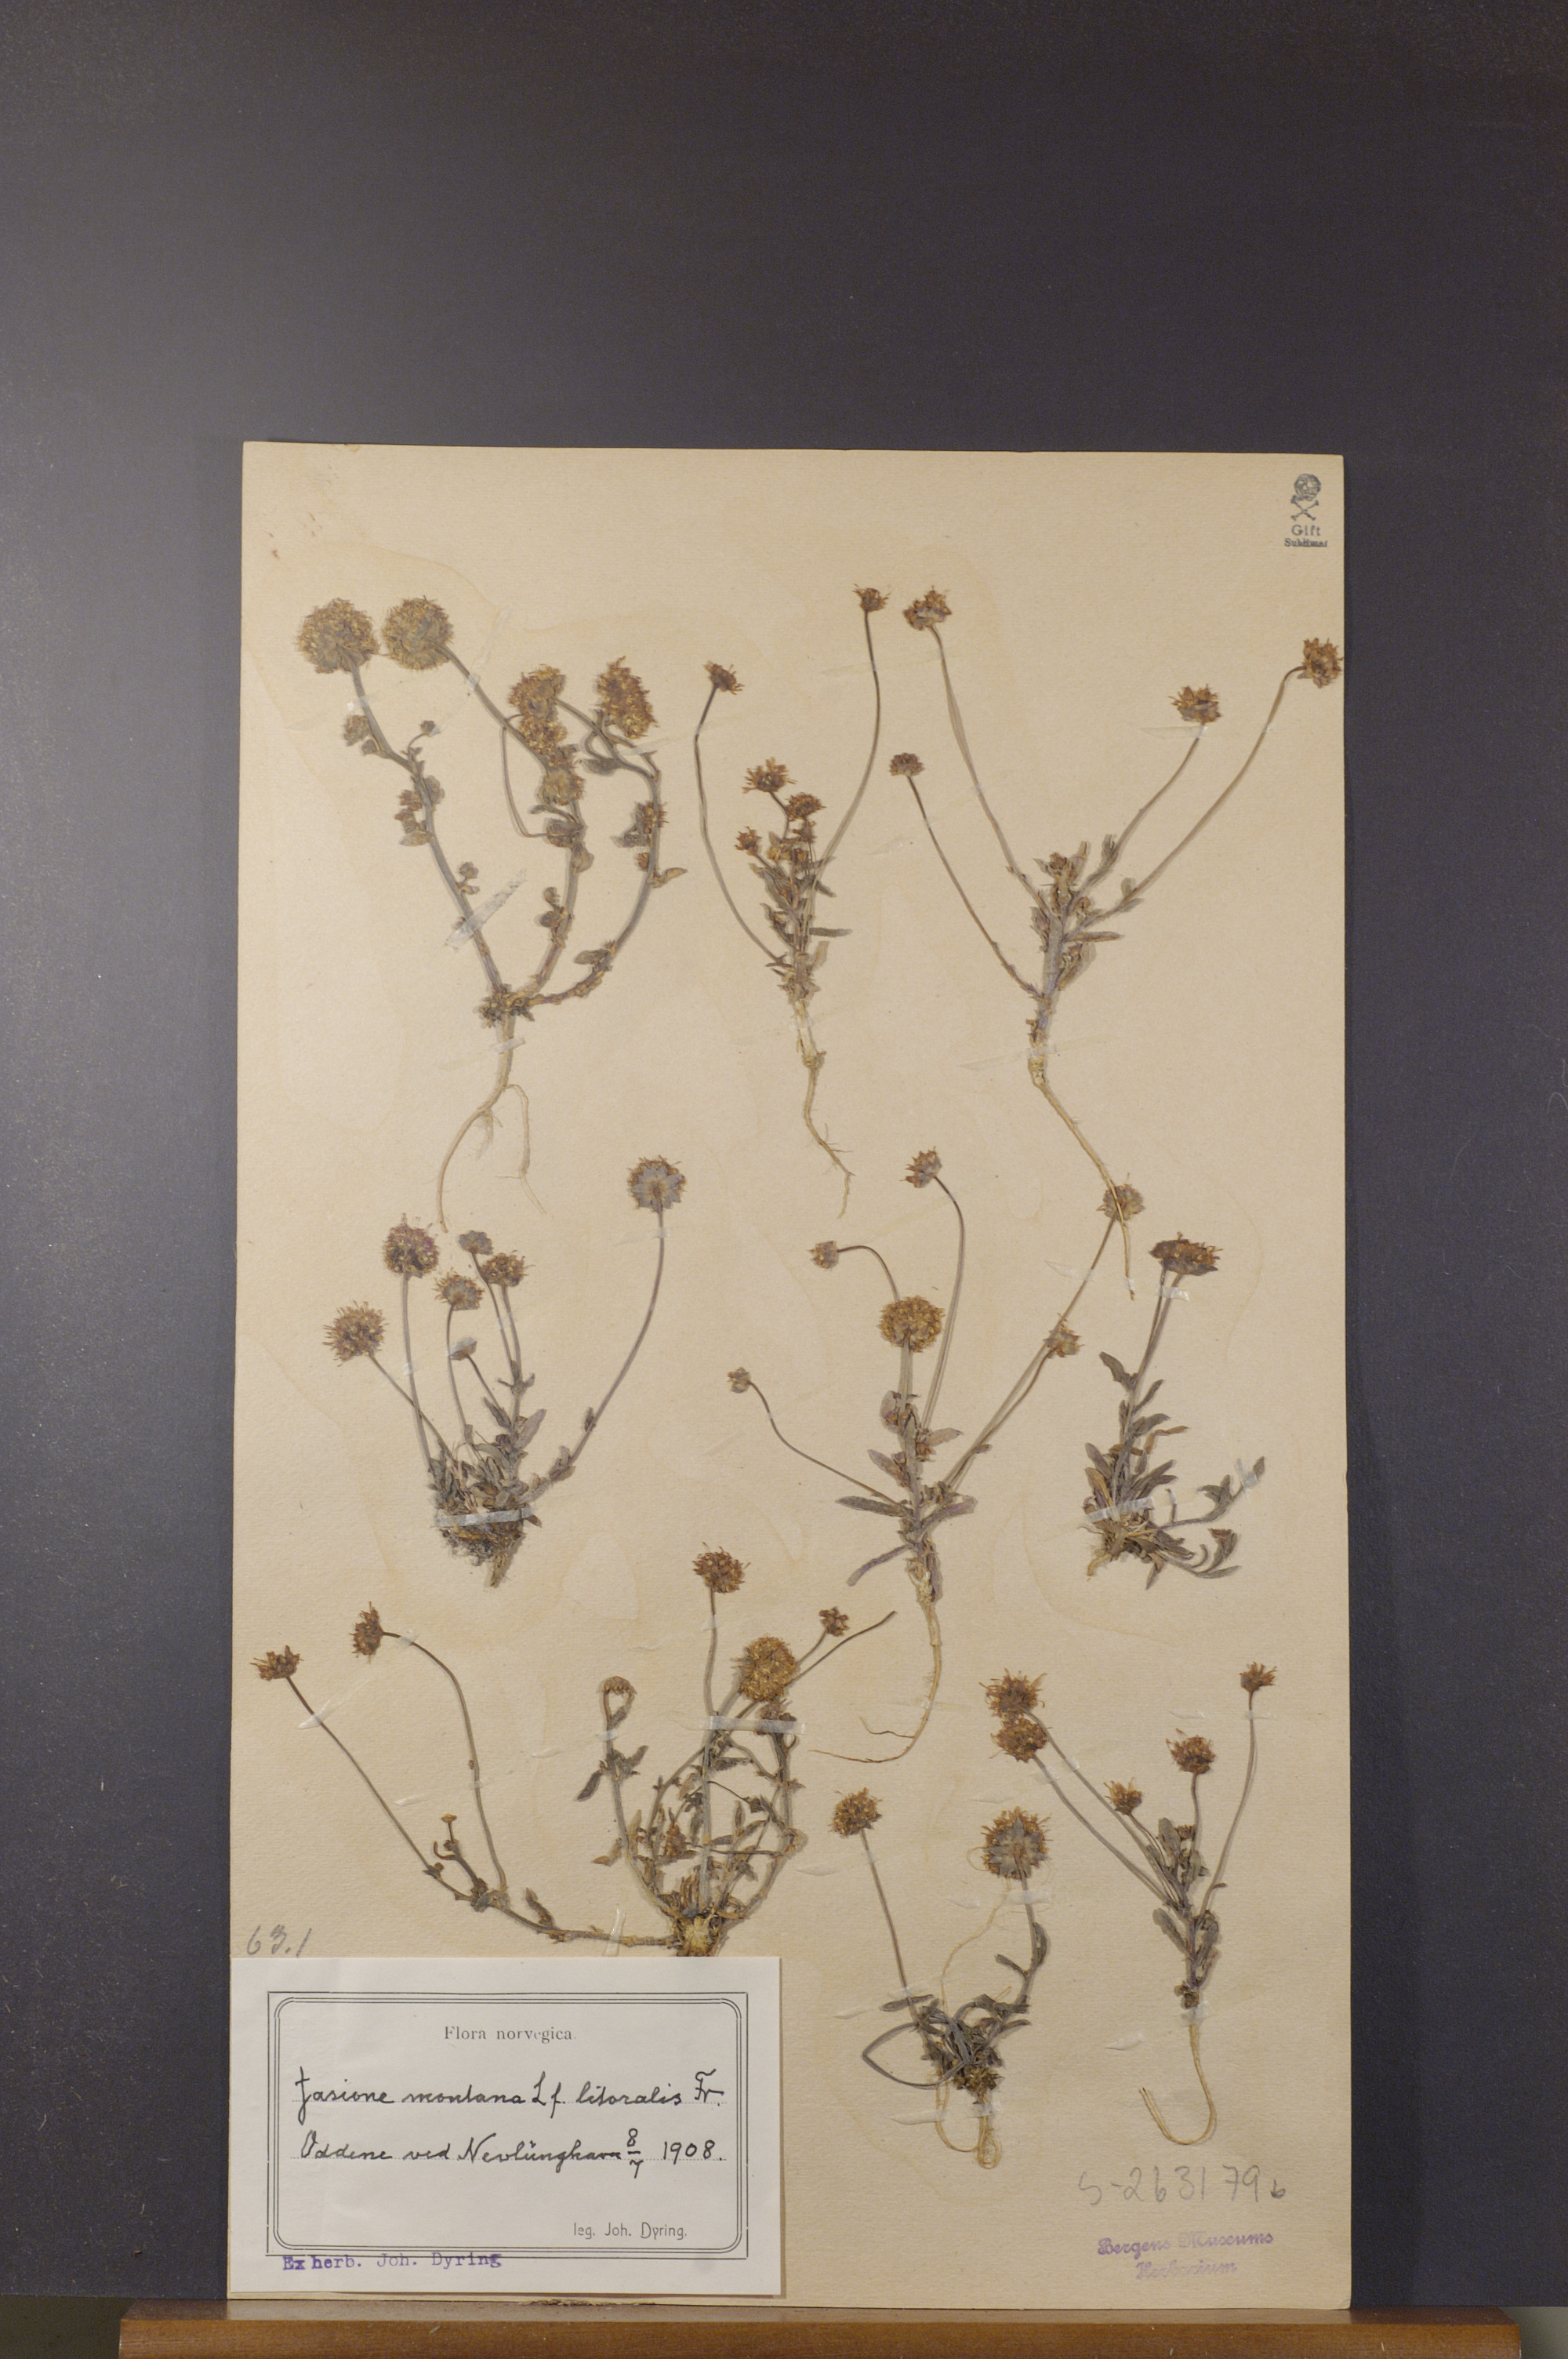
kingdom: Plantae
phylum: Tracheophyta
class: Magnoliopsida
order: Asterales
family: Campanulaceae
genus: Jasione
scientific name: Jasione montana
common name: Sheep's-bit
